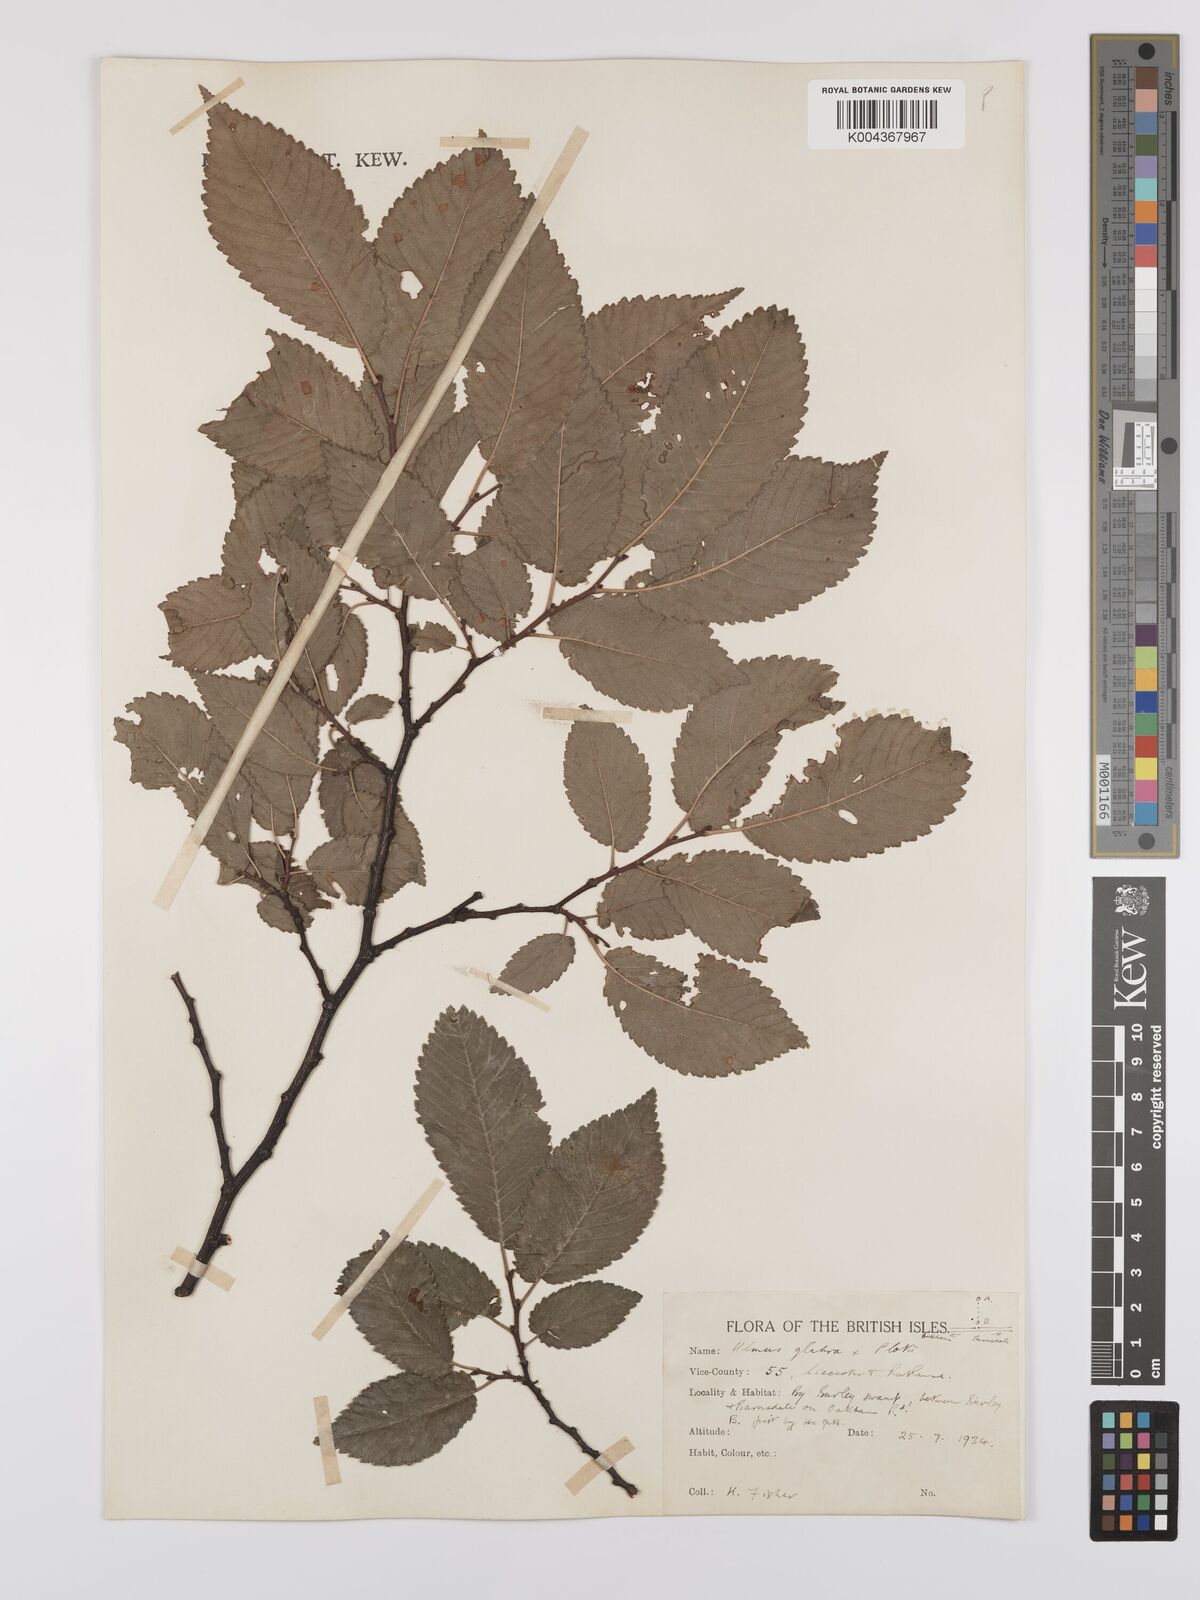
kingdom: Plantae
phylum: Tracheophyta
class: Magnoliopsida
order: Rosales
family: Ulmaceae
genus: Ulmus
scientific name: Ulmus glabra
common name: Wych elm
